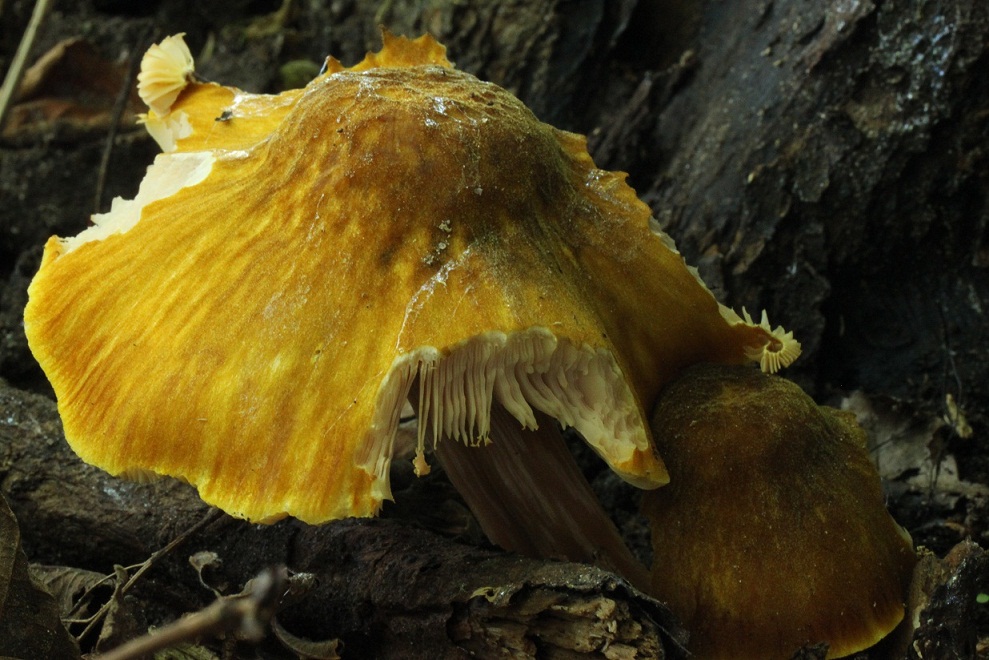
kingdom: Fungi
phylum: Basidiomycota
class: Agaricomycetes
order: Agaricales
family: Pluteaceae
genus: Pluteus
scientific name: Pluteus leoninus
